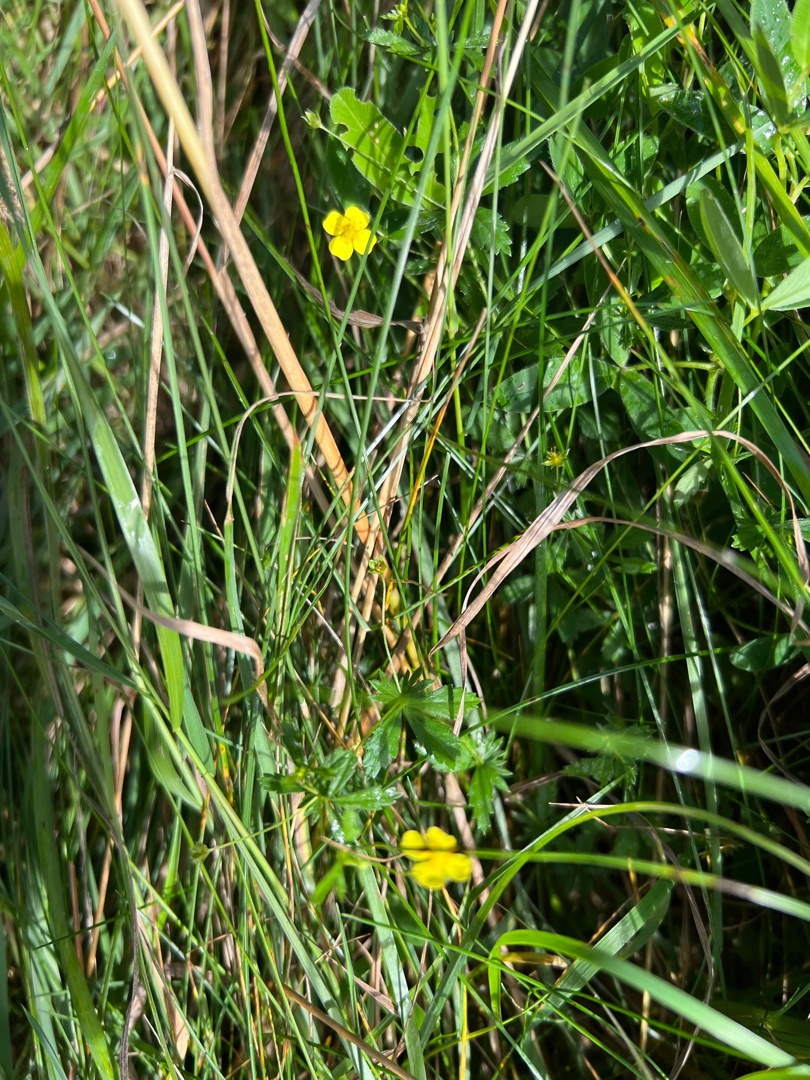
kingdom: Plantae
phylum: Tracheophyta
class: Magnoliopsida
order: Rosales
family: Rosaceae
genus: Potentilla
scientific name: Potentilla erecta
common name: Tormentil
